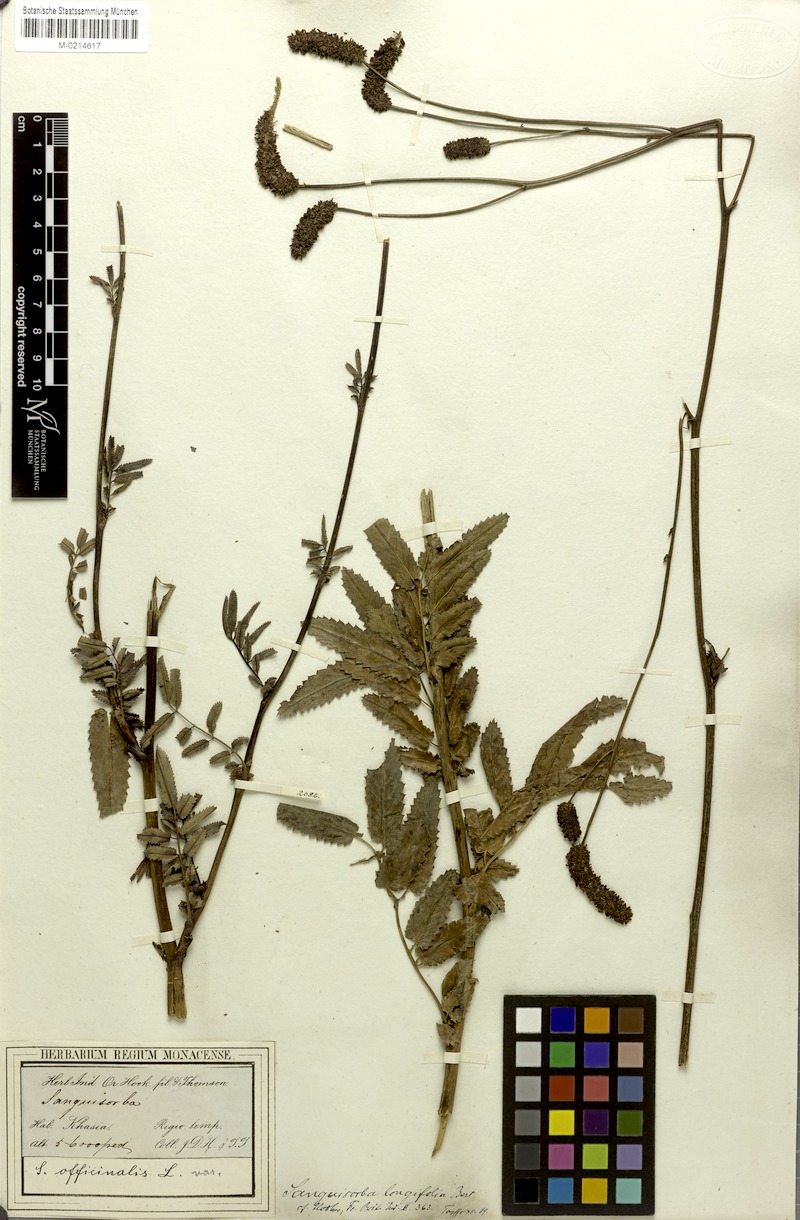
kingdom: Plantae
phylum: Tracheophyta
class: Magnoliopsida
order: Rosales
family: Rosaceae
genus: Sanguisorba
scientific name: Sanguisorba officinalis
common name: Great burnet
